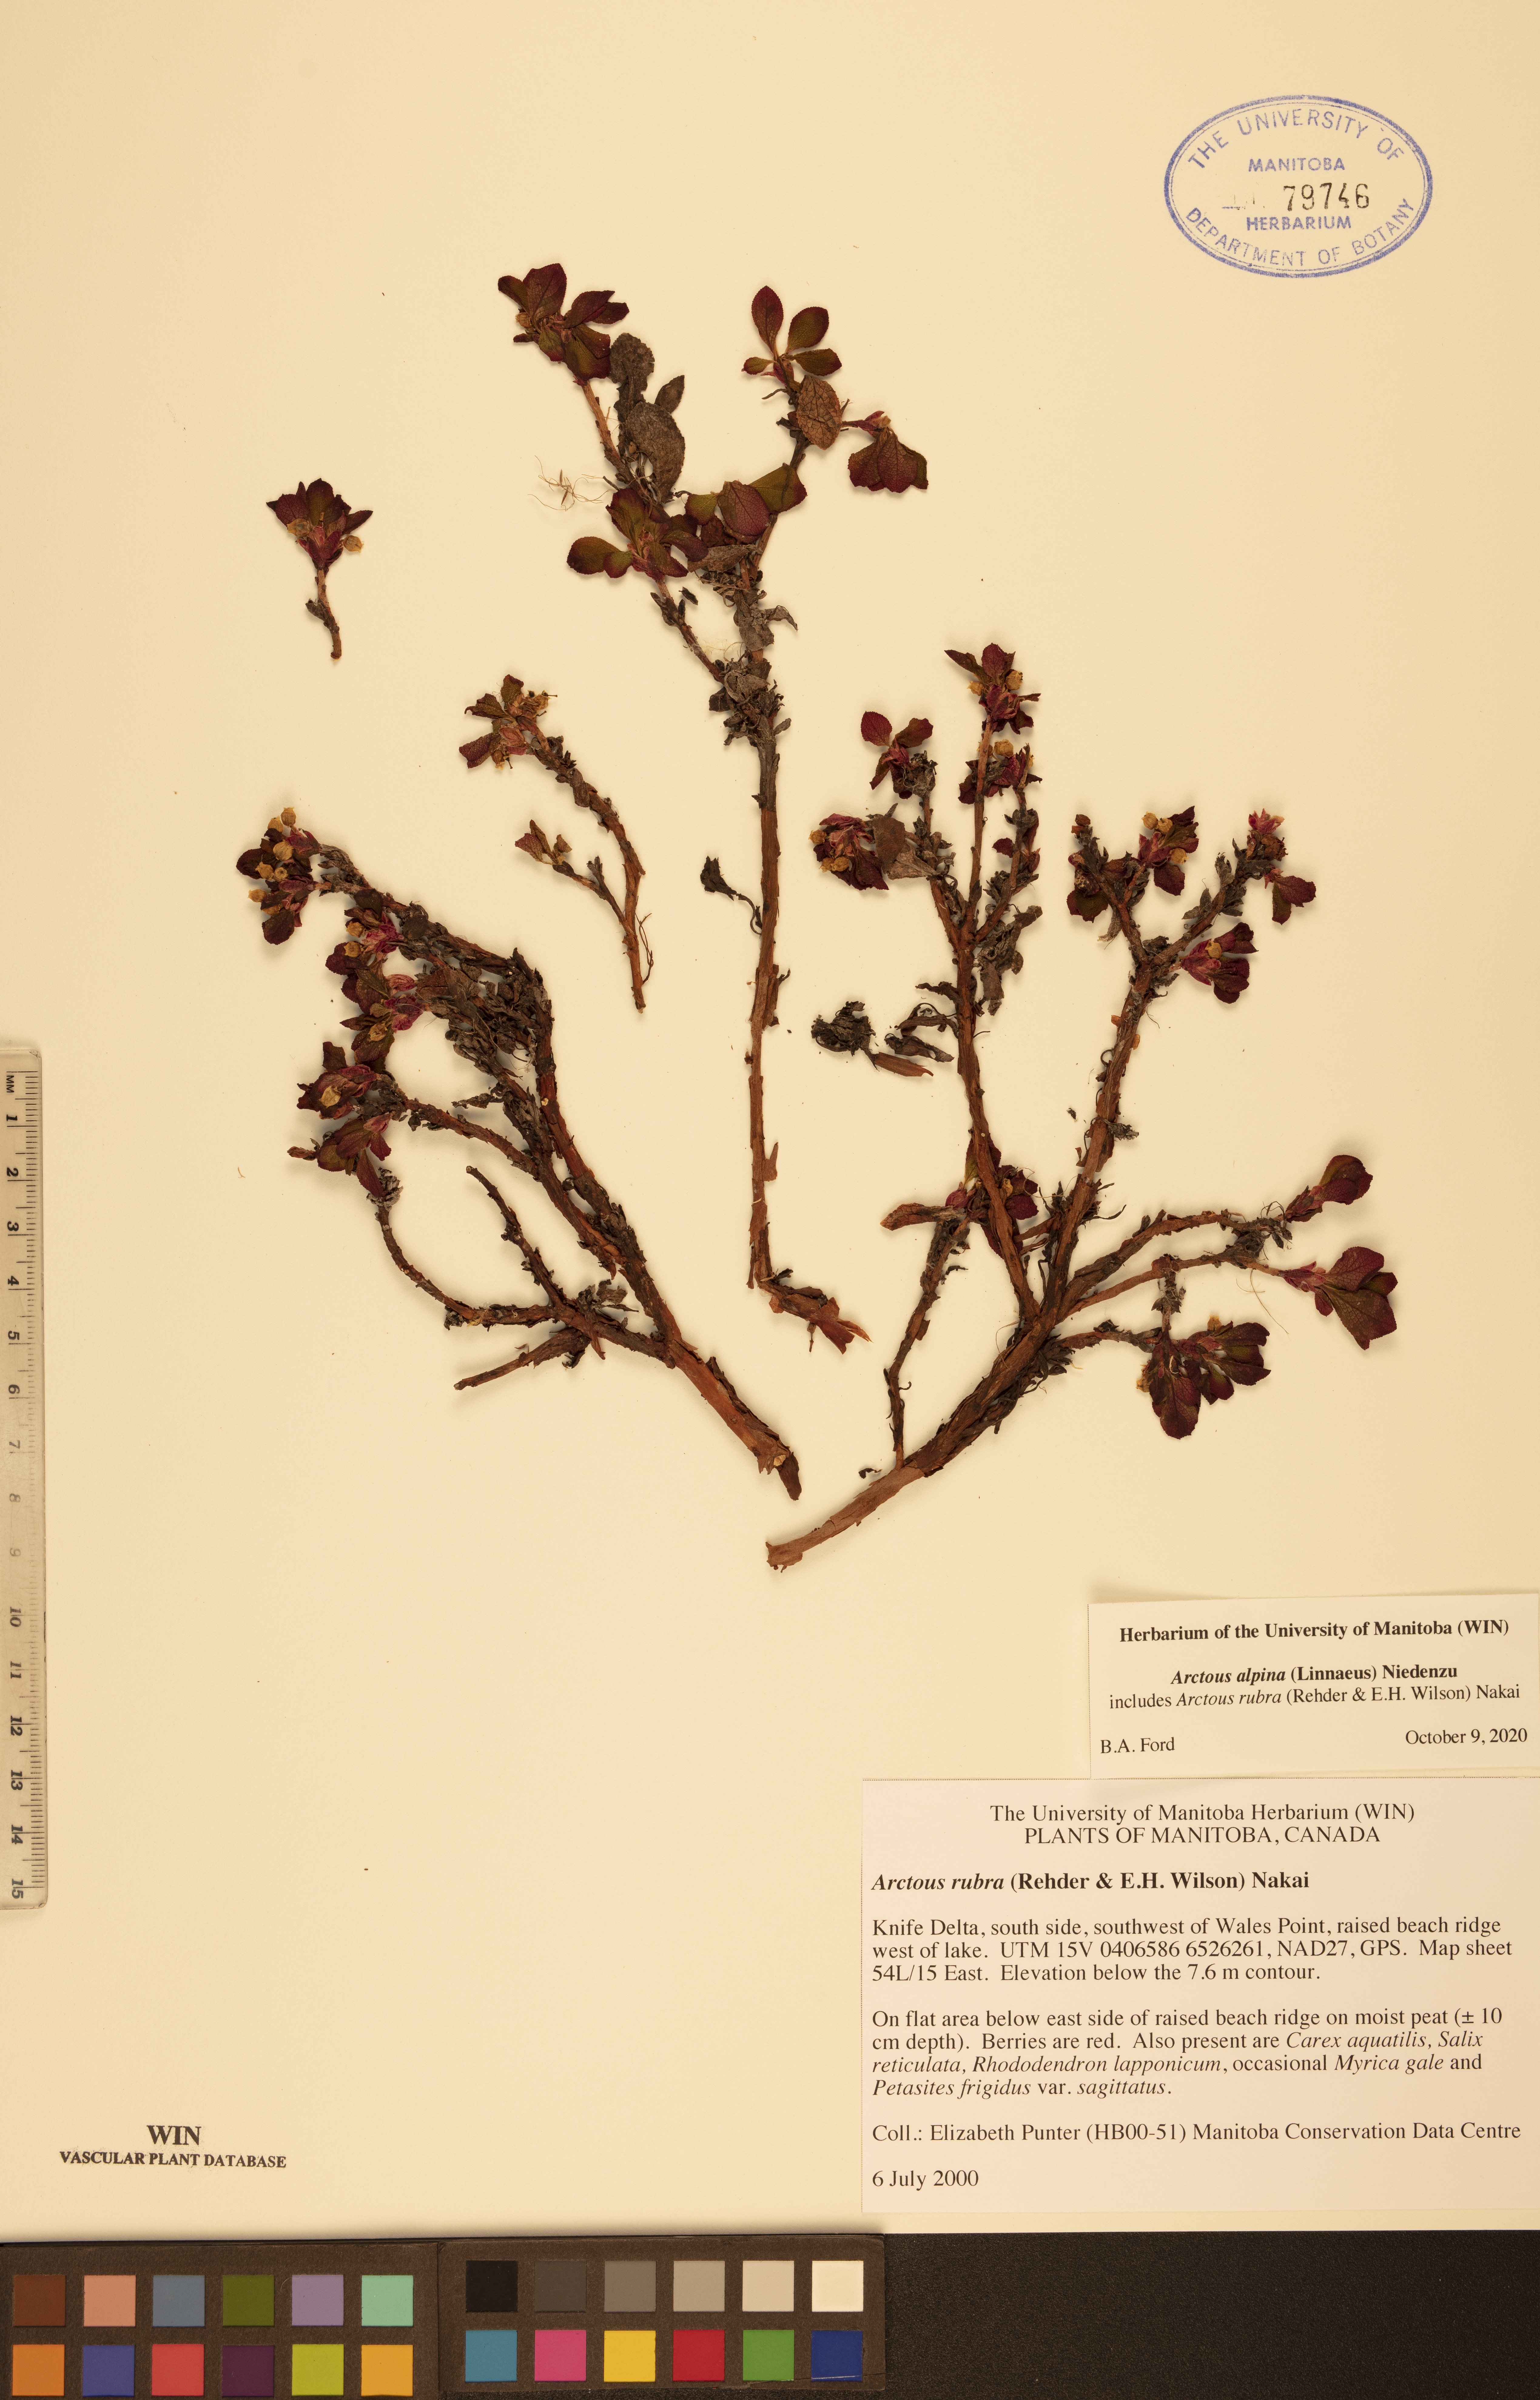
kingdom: Plantae
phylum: Tracheophyta
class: Magnoliopsida
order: Ericales
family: Ericaceae
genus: Arctostaphylos
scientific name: Arctostaphylos alpinus
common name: Alpine bearberry
